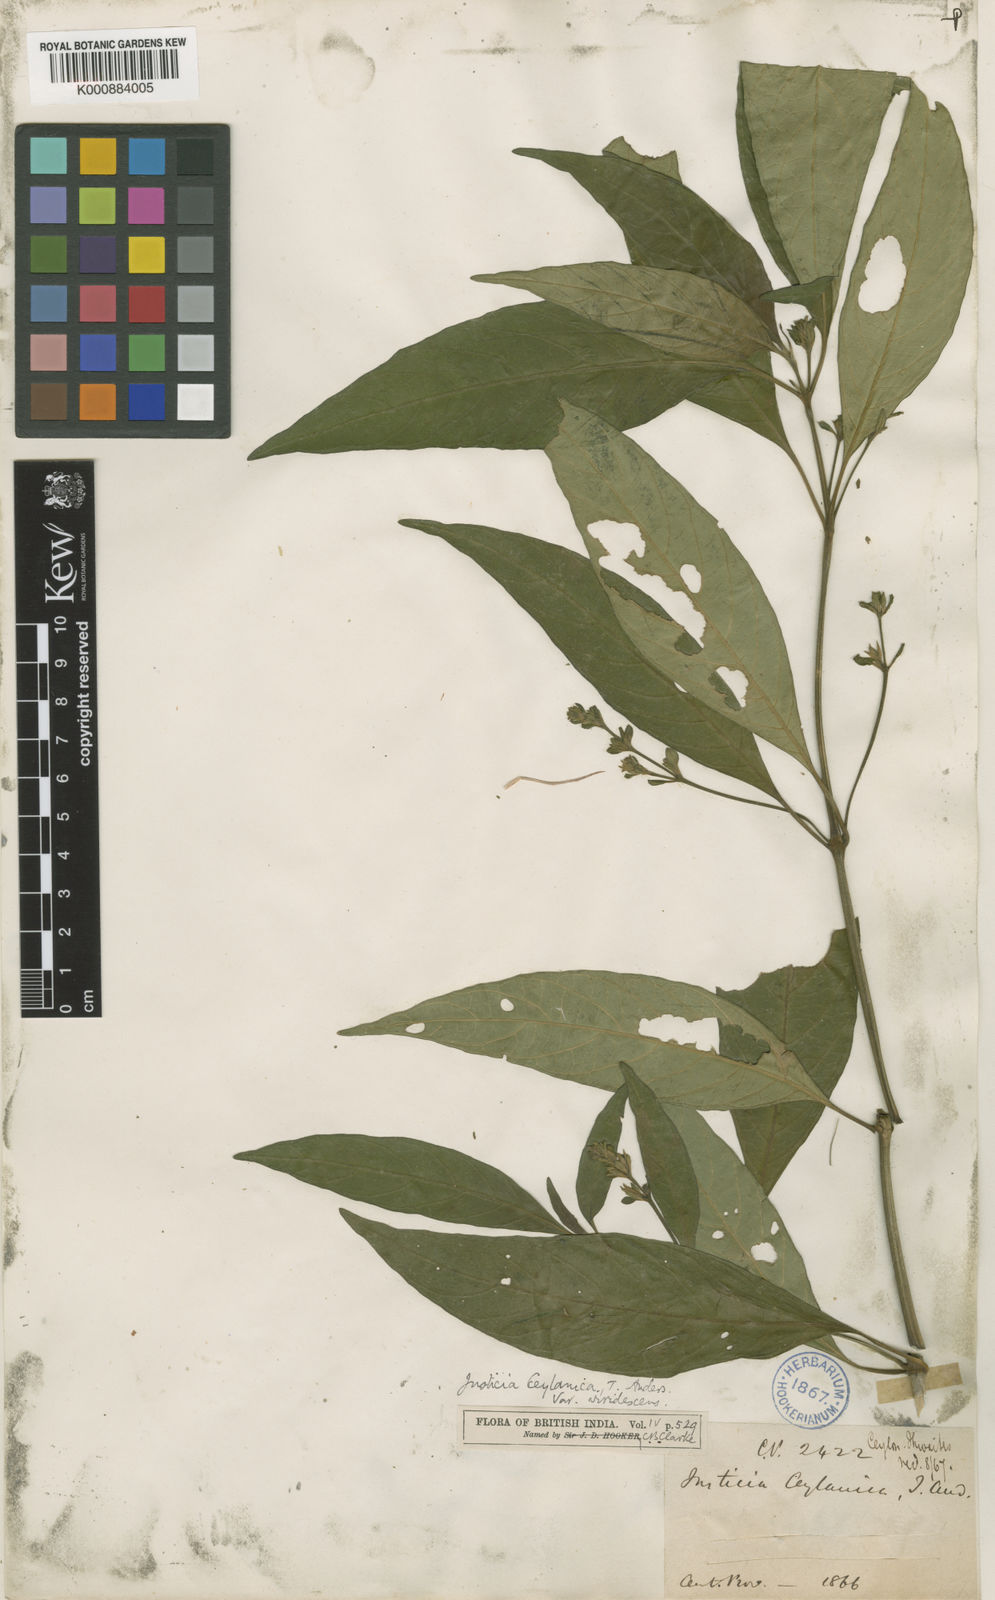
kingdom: Plantae
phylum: Tracheophyta
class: Magnoliopsida
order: Lamiales
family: Acanthaceae
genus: Justicia
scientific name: Justicia ceylanica
